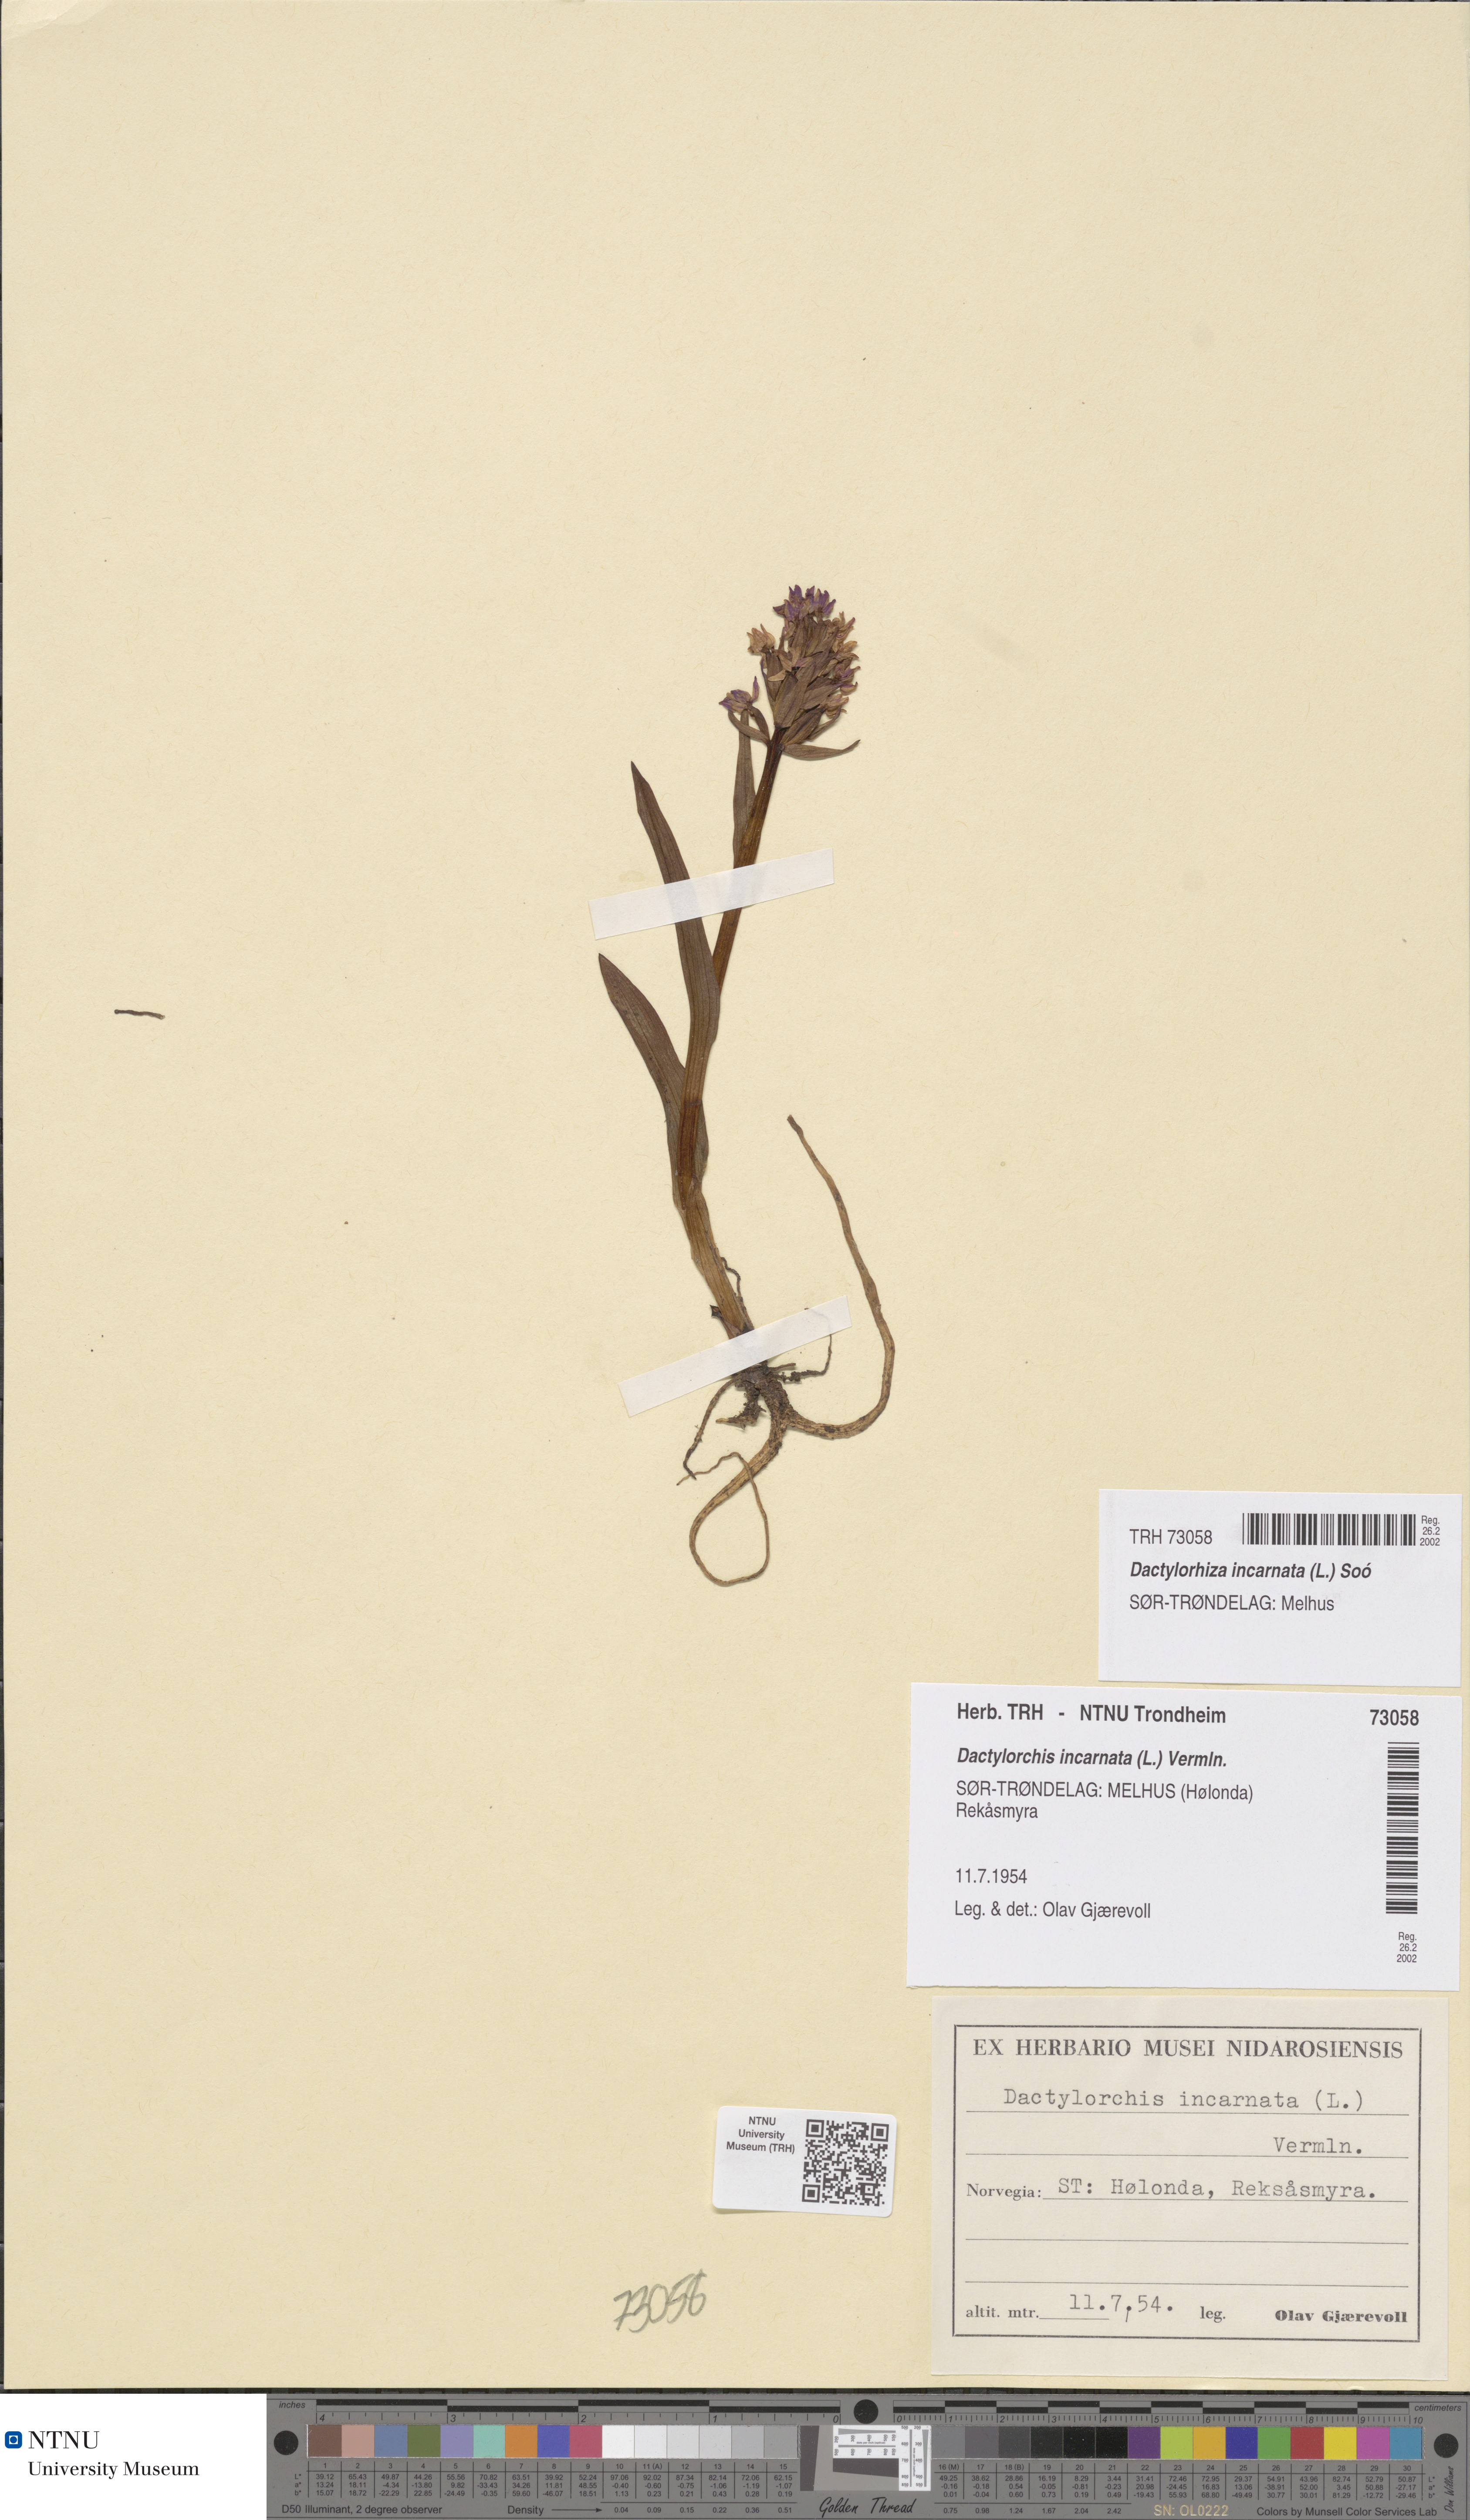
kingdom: Plantae
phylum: Tracheophyta
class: Liliopsida
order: Asparagales
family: Orchidaceae
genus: Dactylorhiza
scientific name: Dactylorhiza incarnata
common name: Early marsh-orchid
